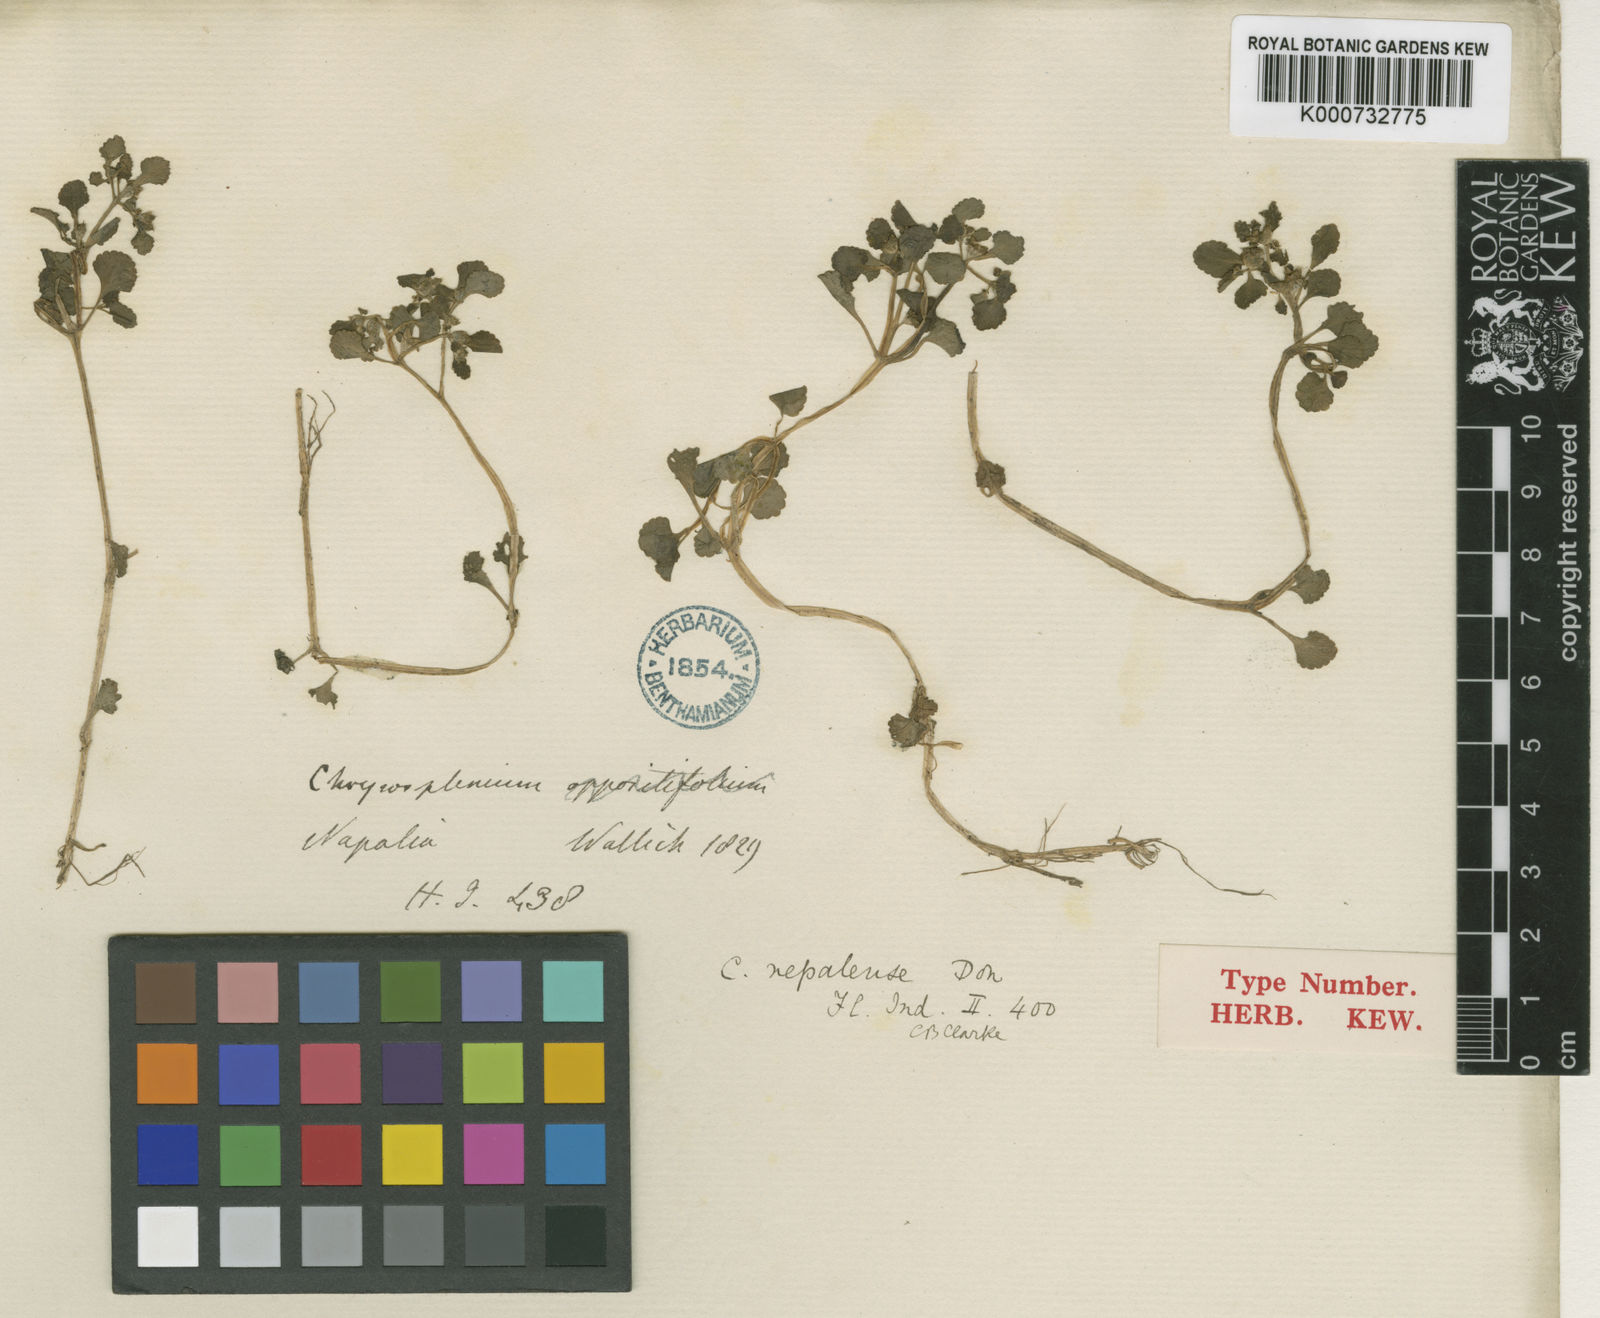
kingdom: Plantae
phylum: Tracheophyta
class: Magnoliopsida
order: Saxifragales
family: Saxifragaceae
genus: Chrysosplenium
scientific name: Chrysosplenium nepalense
